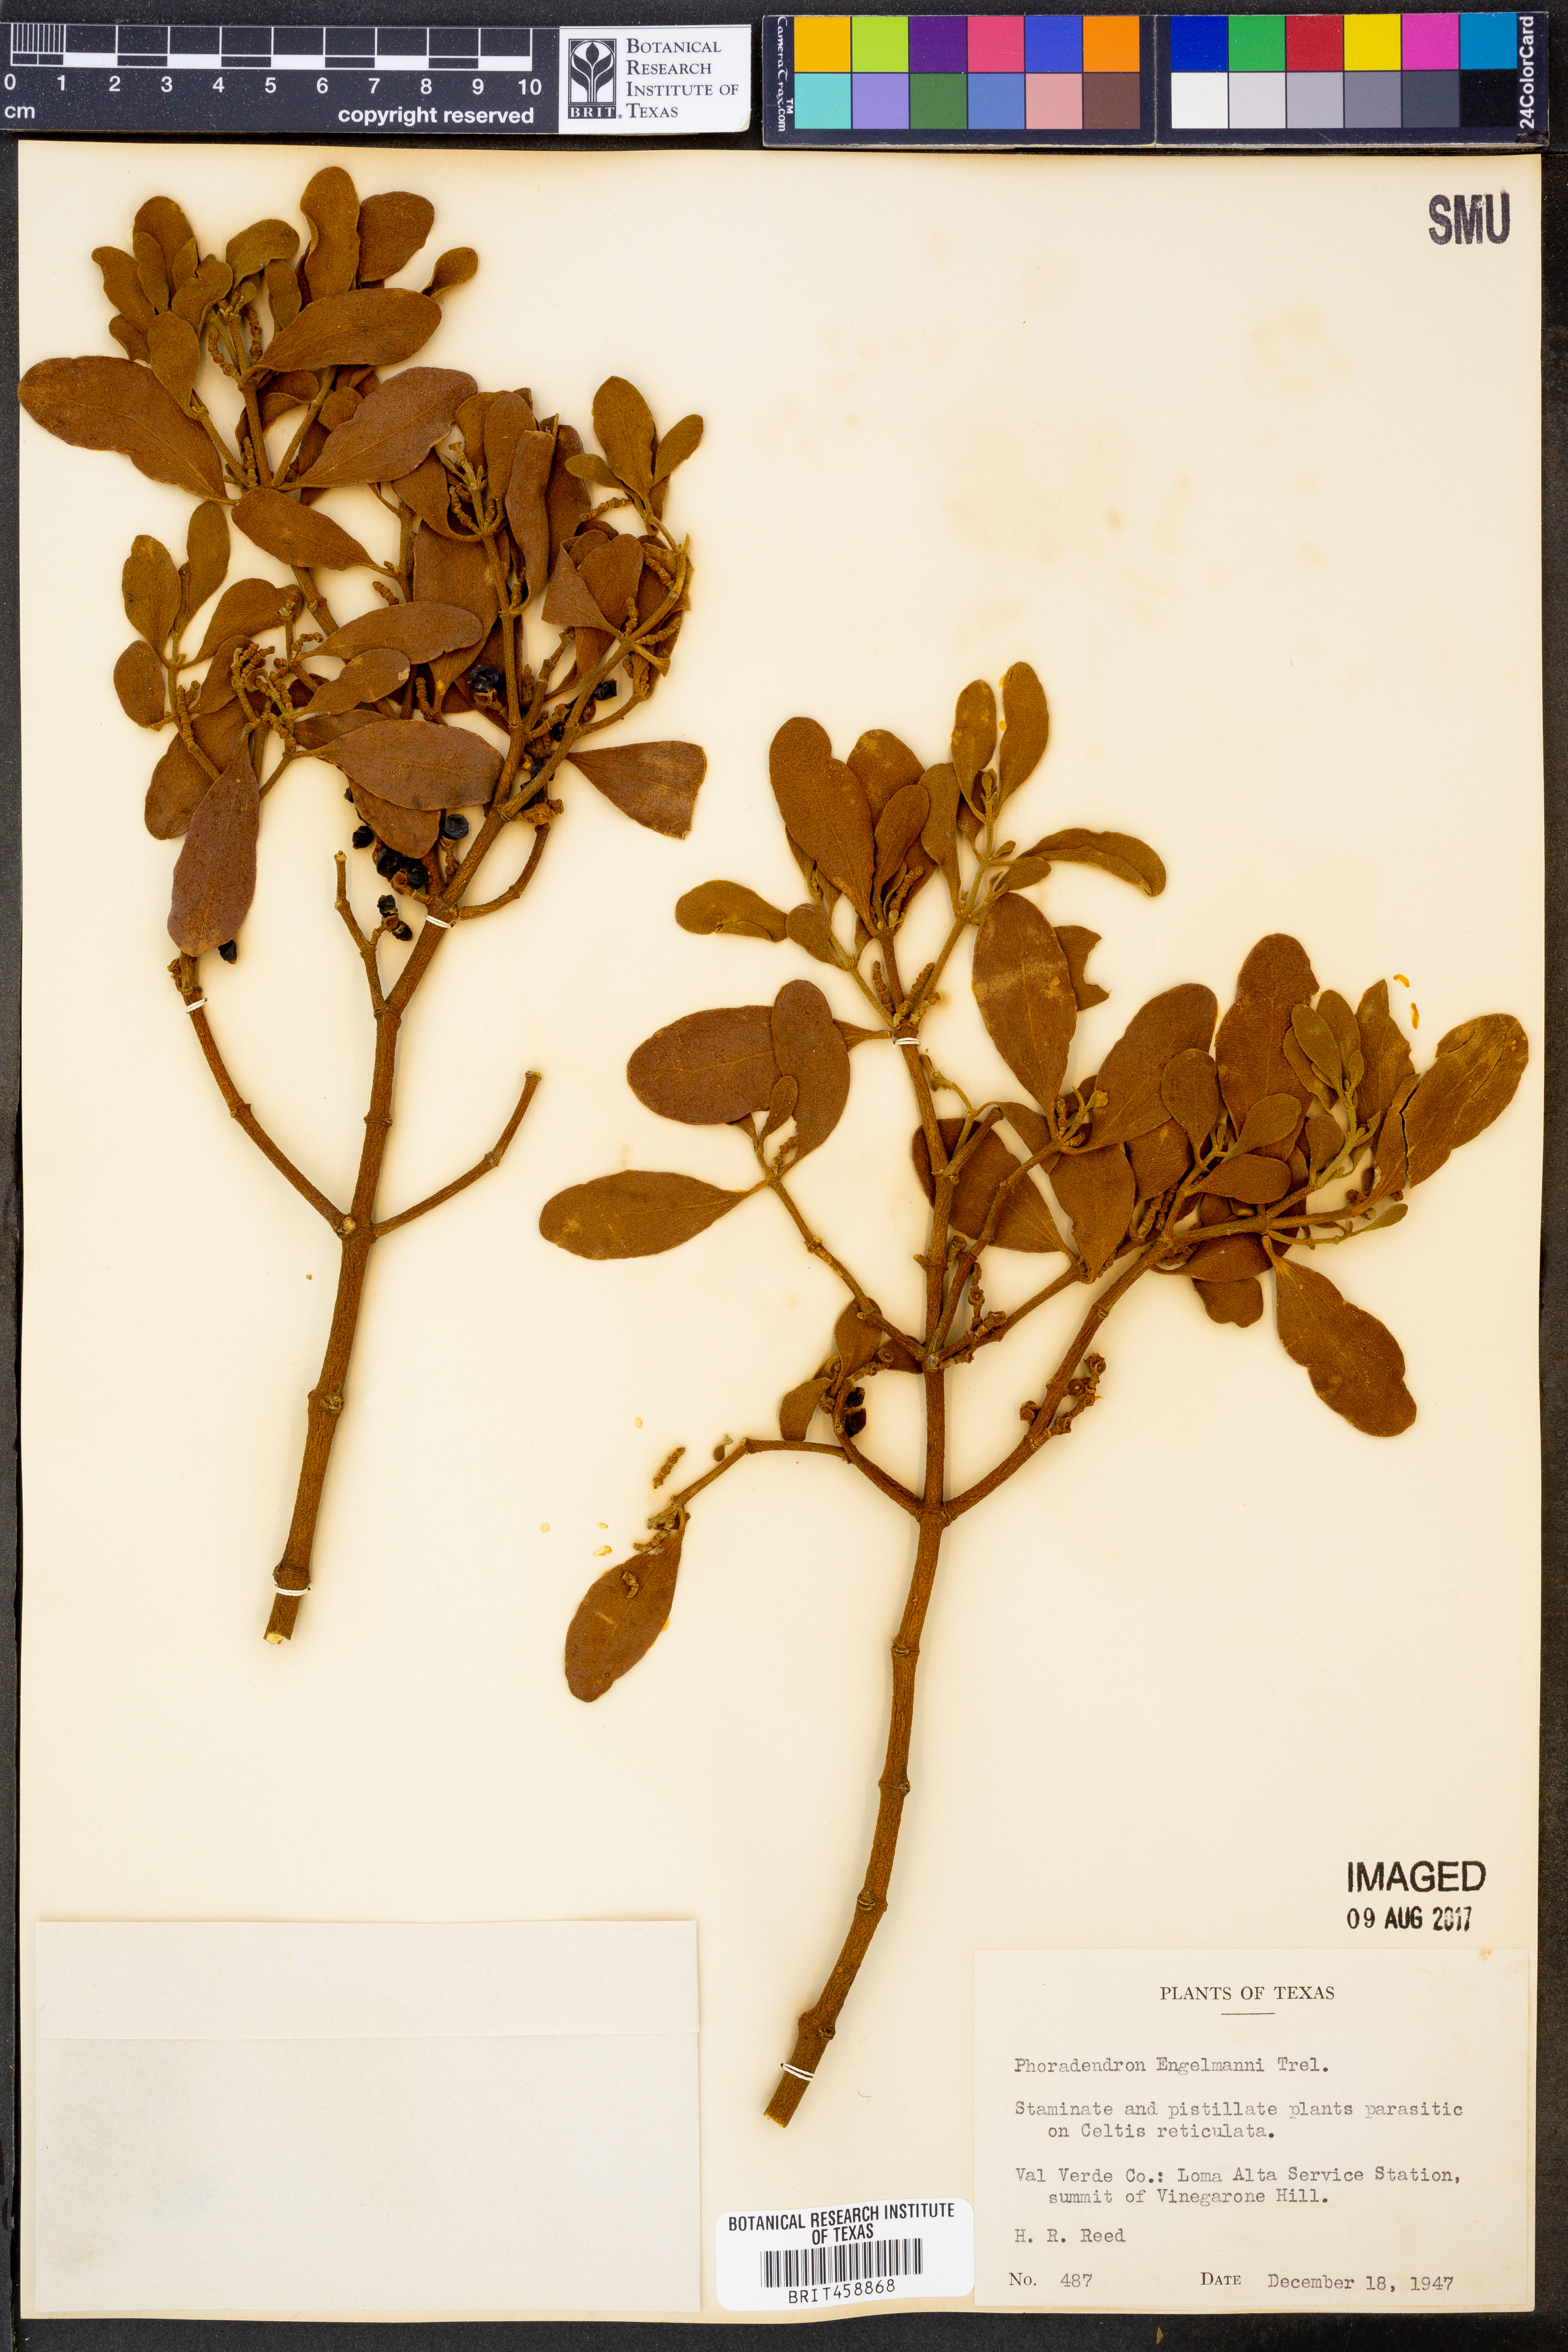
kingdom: Plantae
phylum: Tracheophyta
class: Magnoliopsida
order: Santalales
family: Viscaceae
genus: Phoradendron
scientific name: Phoradendron leucarpum
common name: Pacific mistletoe
